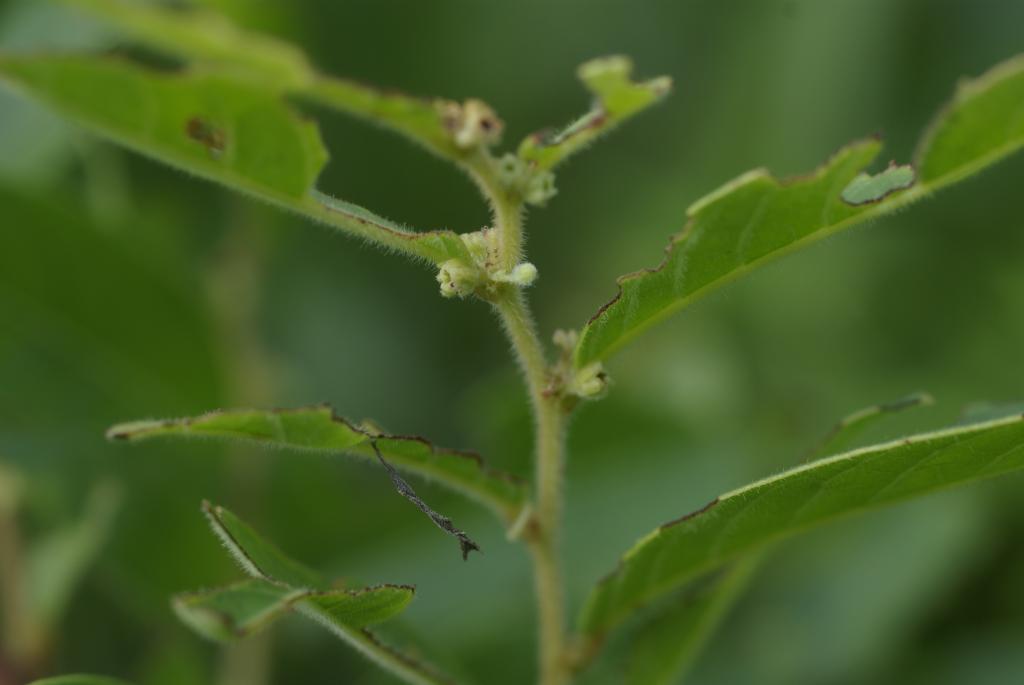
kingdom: Plantae
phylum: Tracheophyta
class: Magnoliopsida
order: Malpighiales
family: Phyllanthaceae
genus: Glochidion
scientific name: Glochidion puberum
